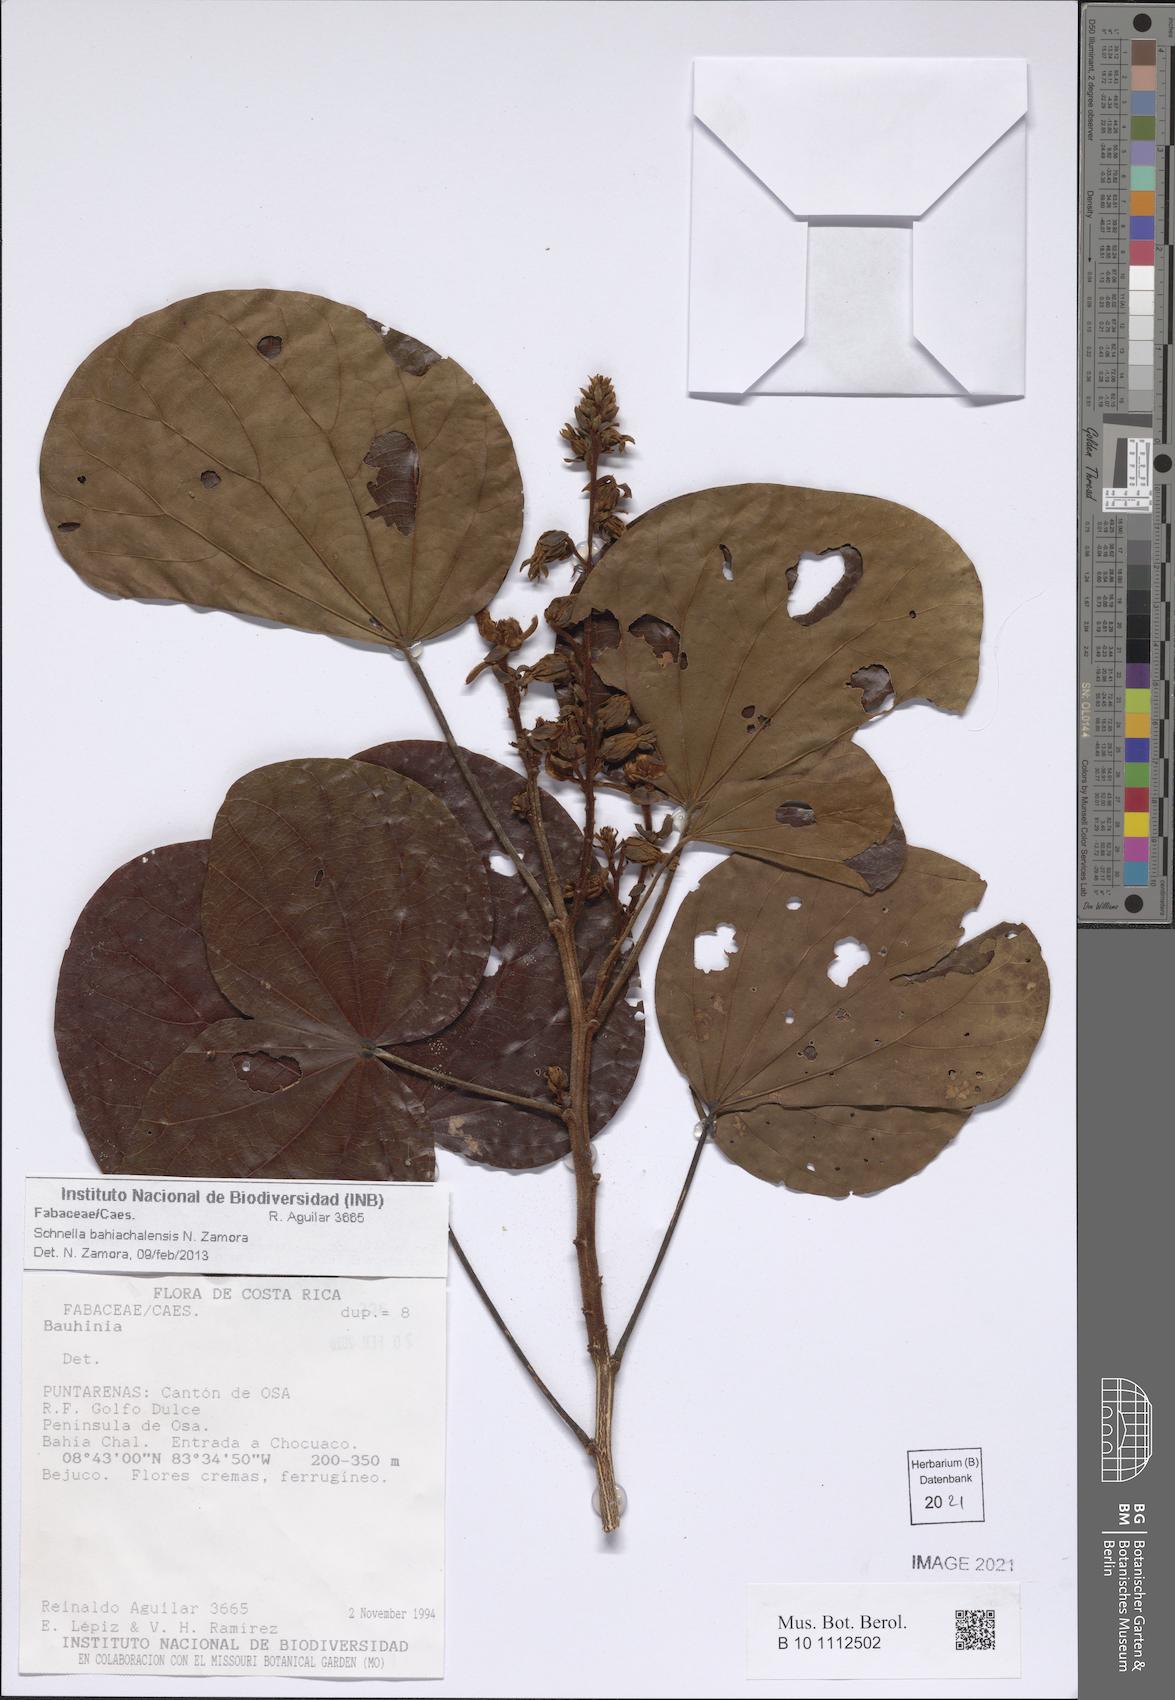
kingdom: Plantae
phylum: Tracheophyta
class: Magnoliopsida
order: Fabales
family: Fabaceae
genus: Schnella
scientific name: Schnella bahiachalensis
